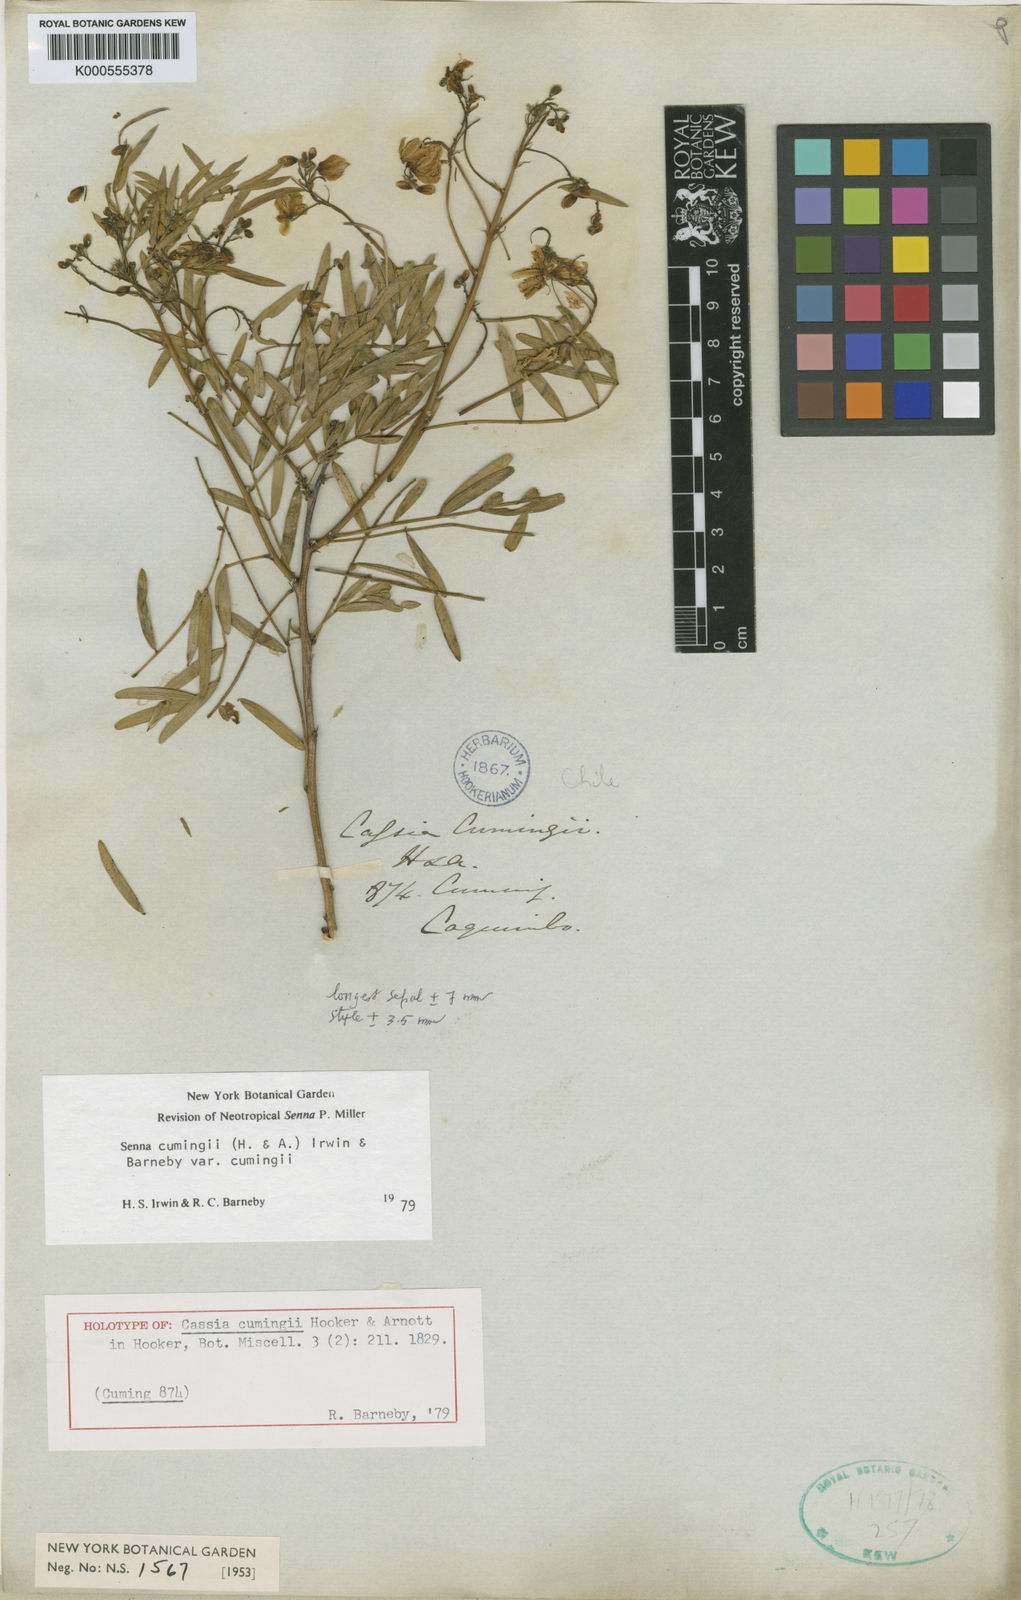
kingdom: Plantae
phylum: Tracheophyta
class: Magnoliopsida
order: Fabales
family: Fabaceae
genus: Senna
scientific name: Senna cumingii
